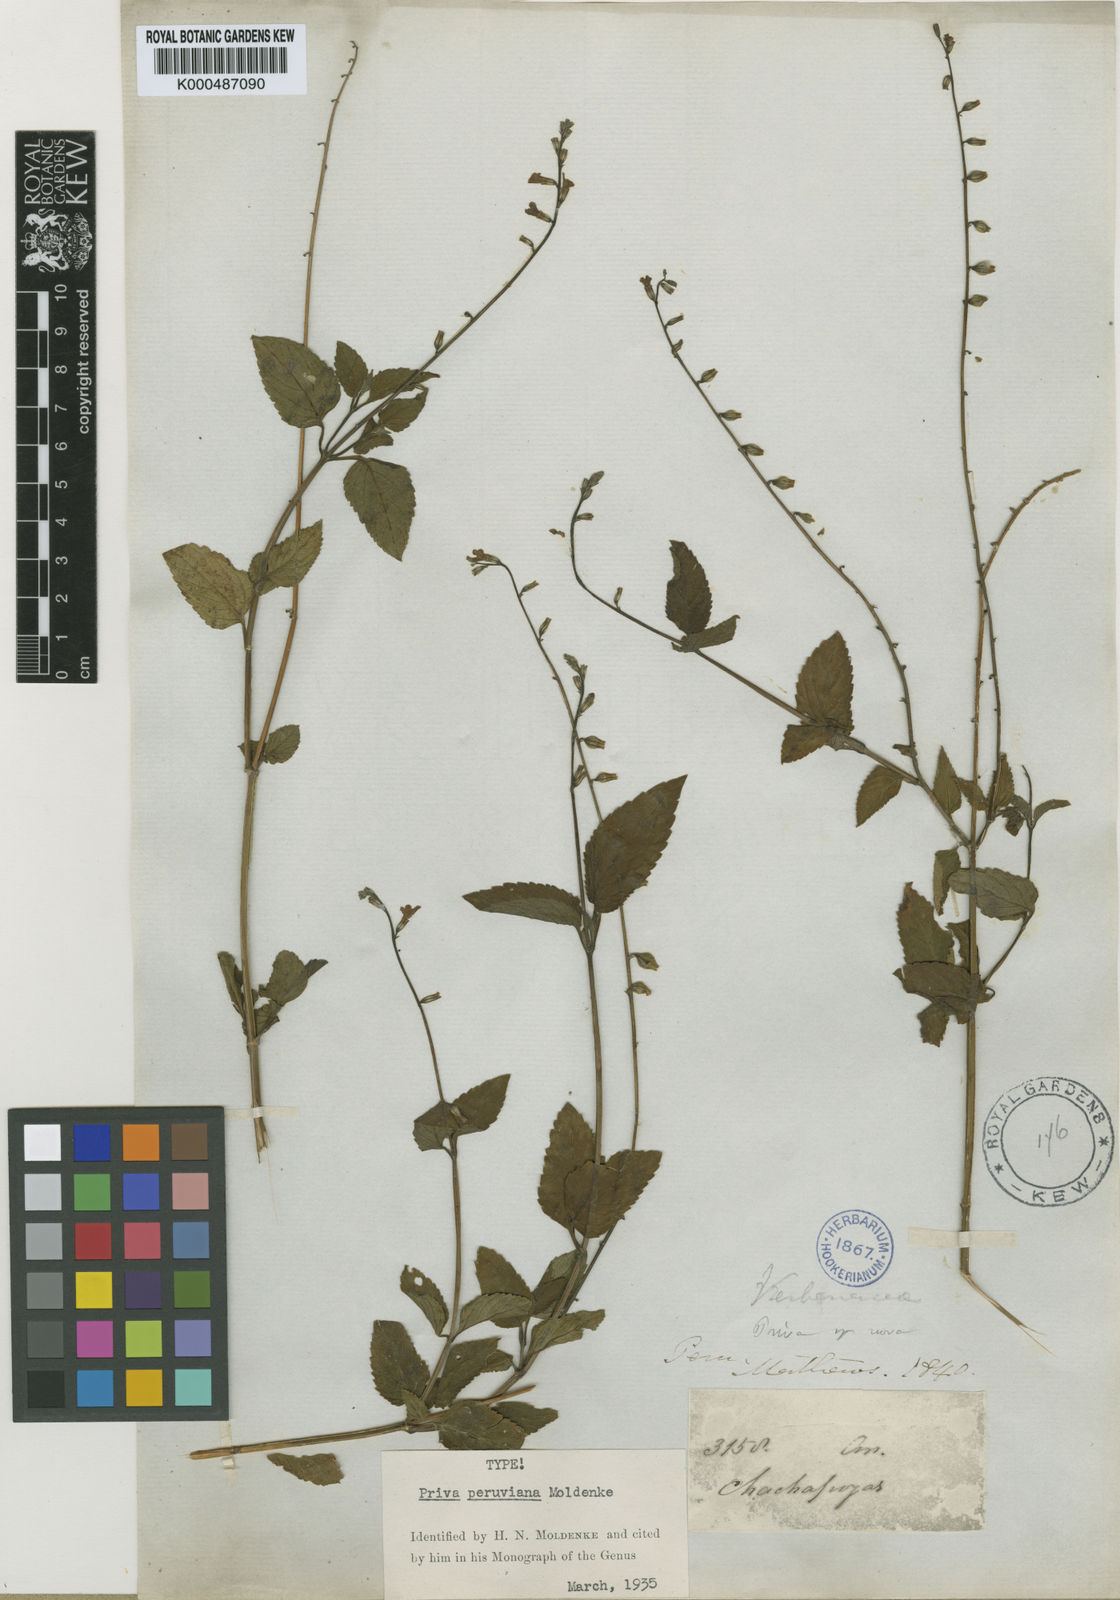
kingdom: Plantae
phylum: Tracheophyta
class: Magnoliopsida
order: Lamiales
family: Verbenaceae
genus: Priva
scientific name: Priva peruviana
